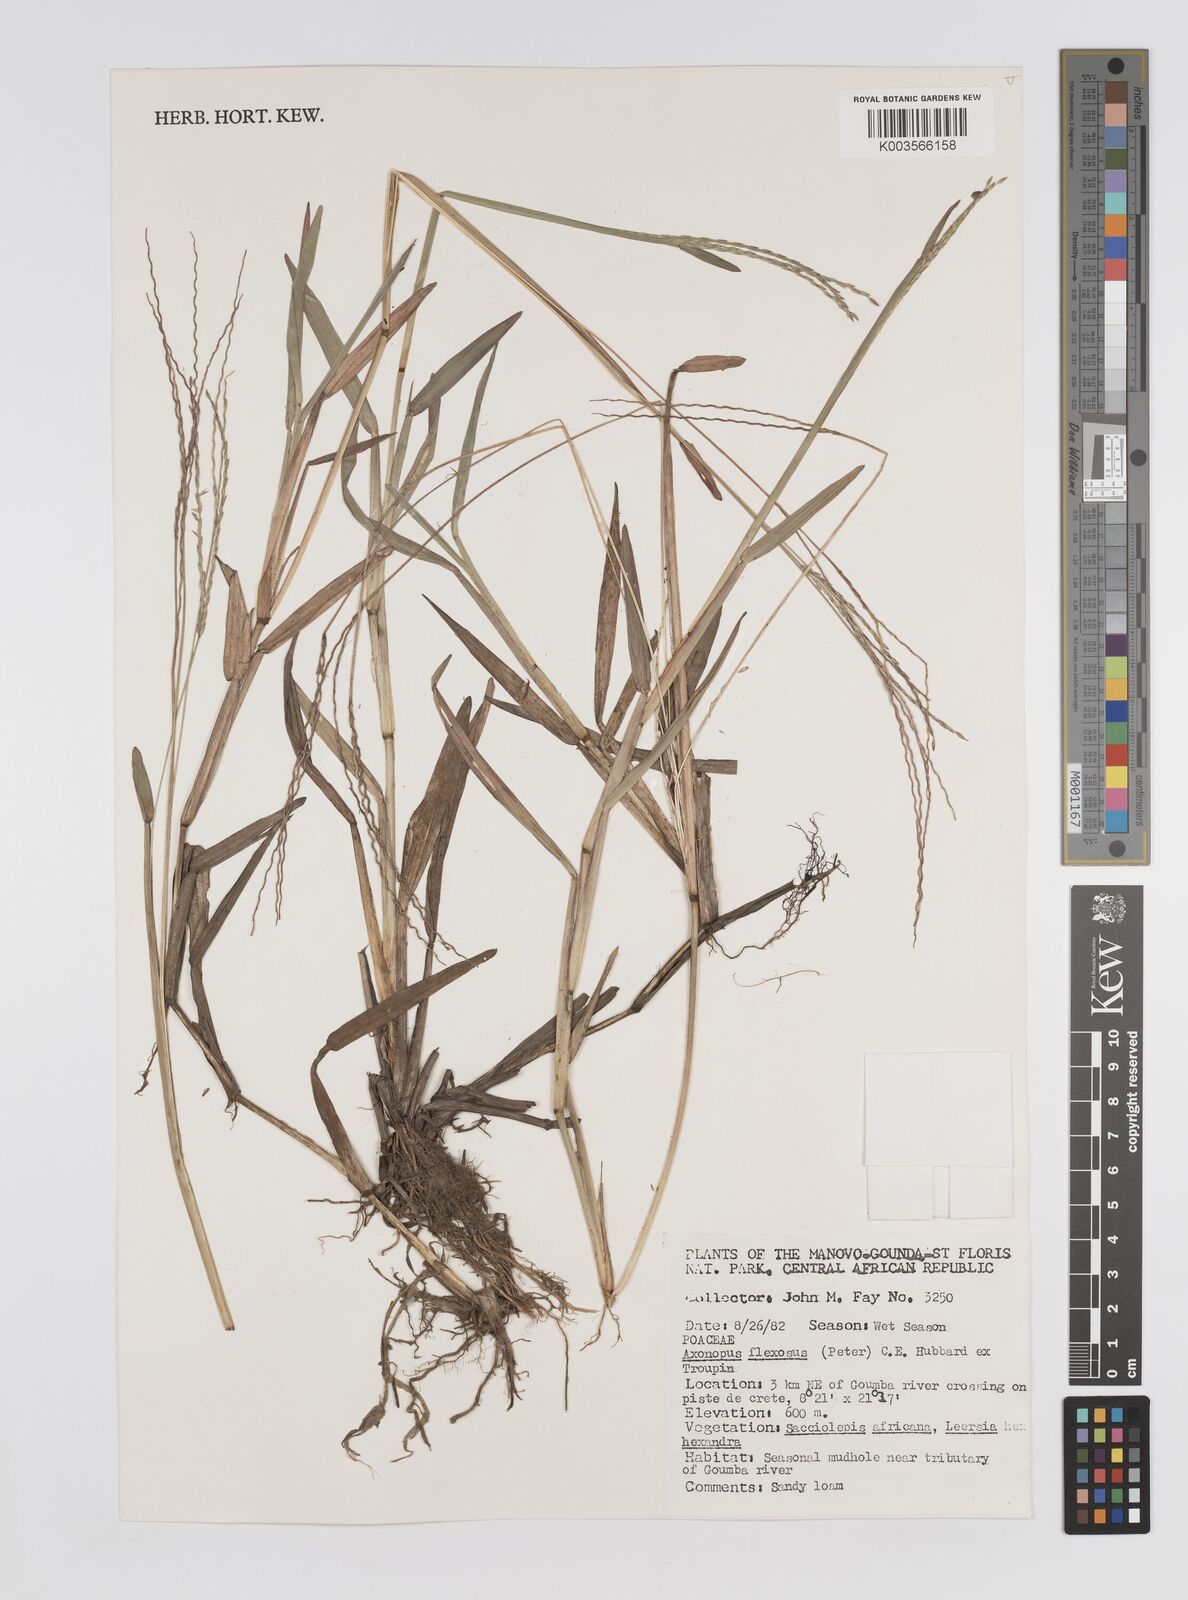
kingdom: Plantae
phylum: Tracheophyta
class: Liliopsida
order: Poales
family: Poaceae
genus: Axonopus
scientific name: Axonopus flexuosus
